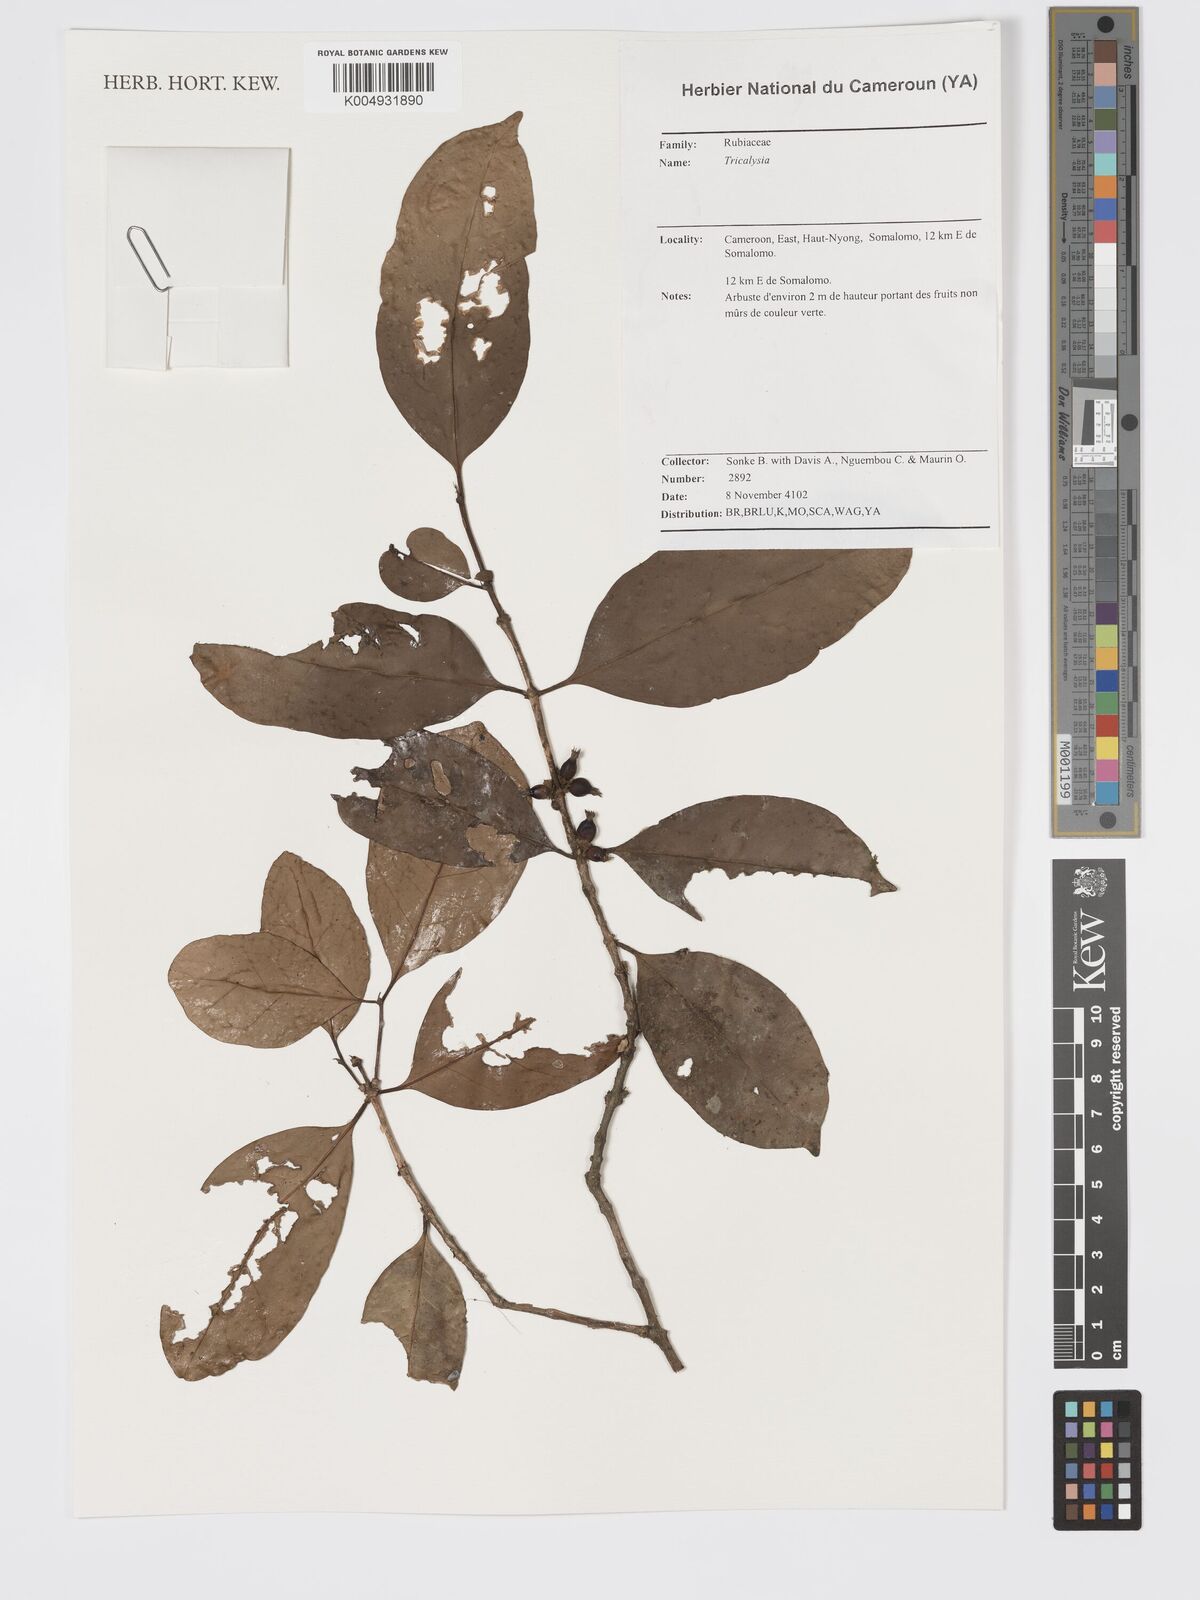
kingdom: Plantae
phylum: Tracheophyta
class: Magnoliopsida
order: Gentianales
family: Rubiaceae
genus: Tricalysia
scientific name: Tricalysia
